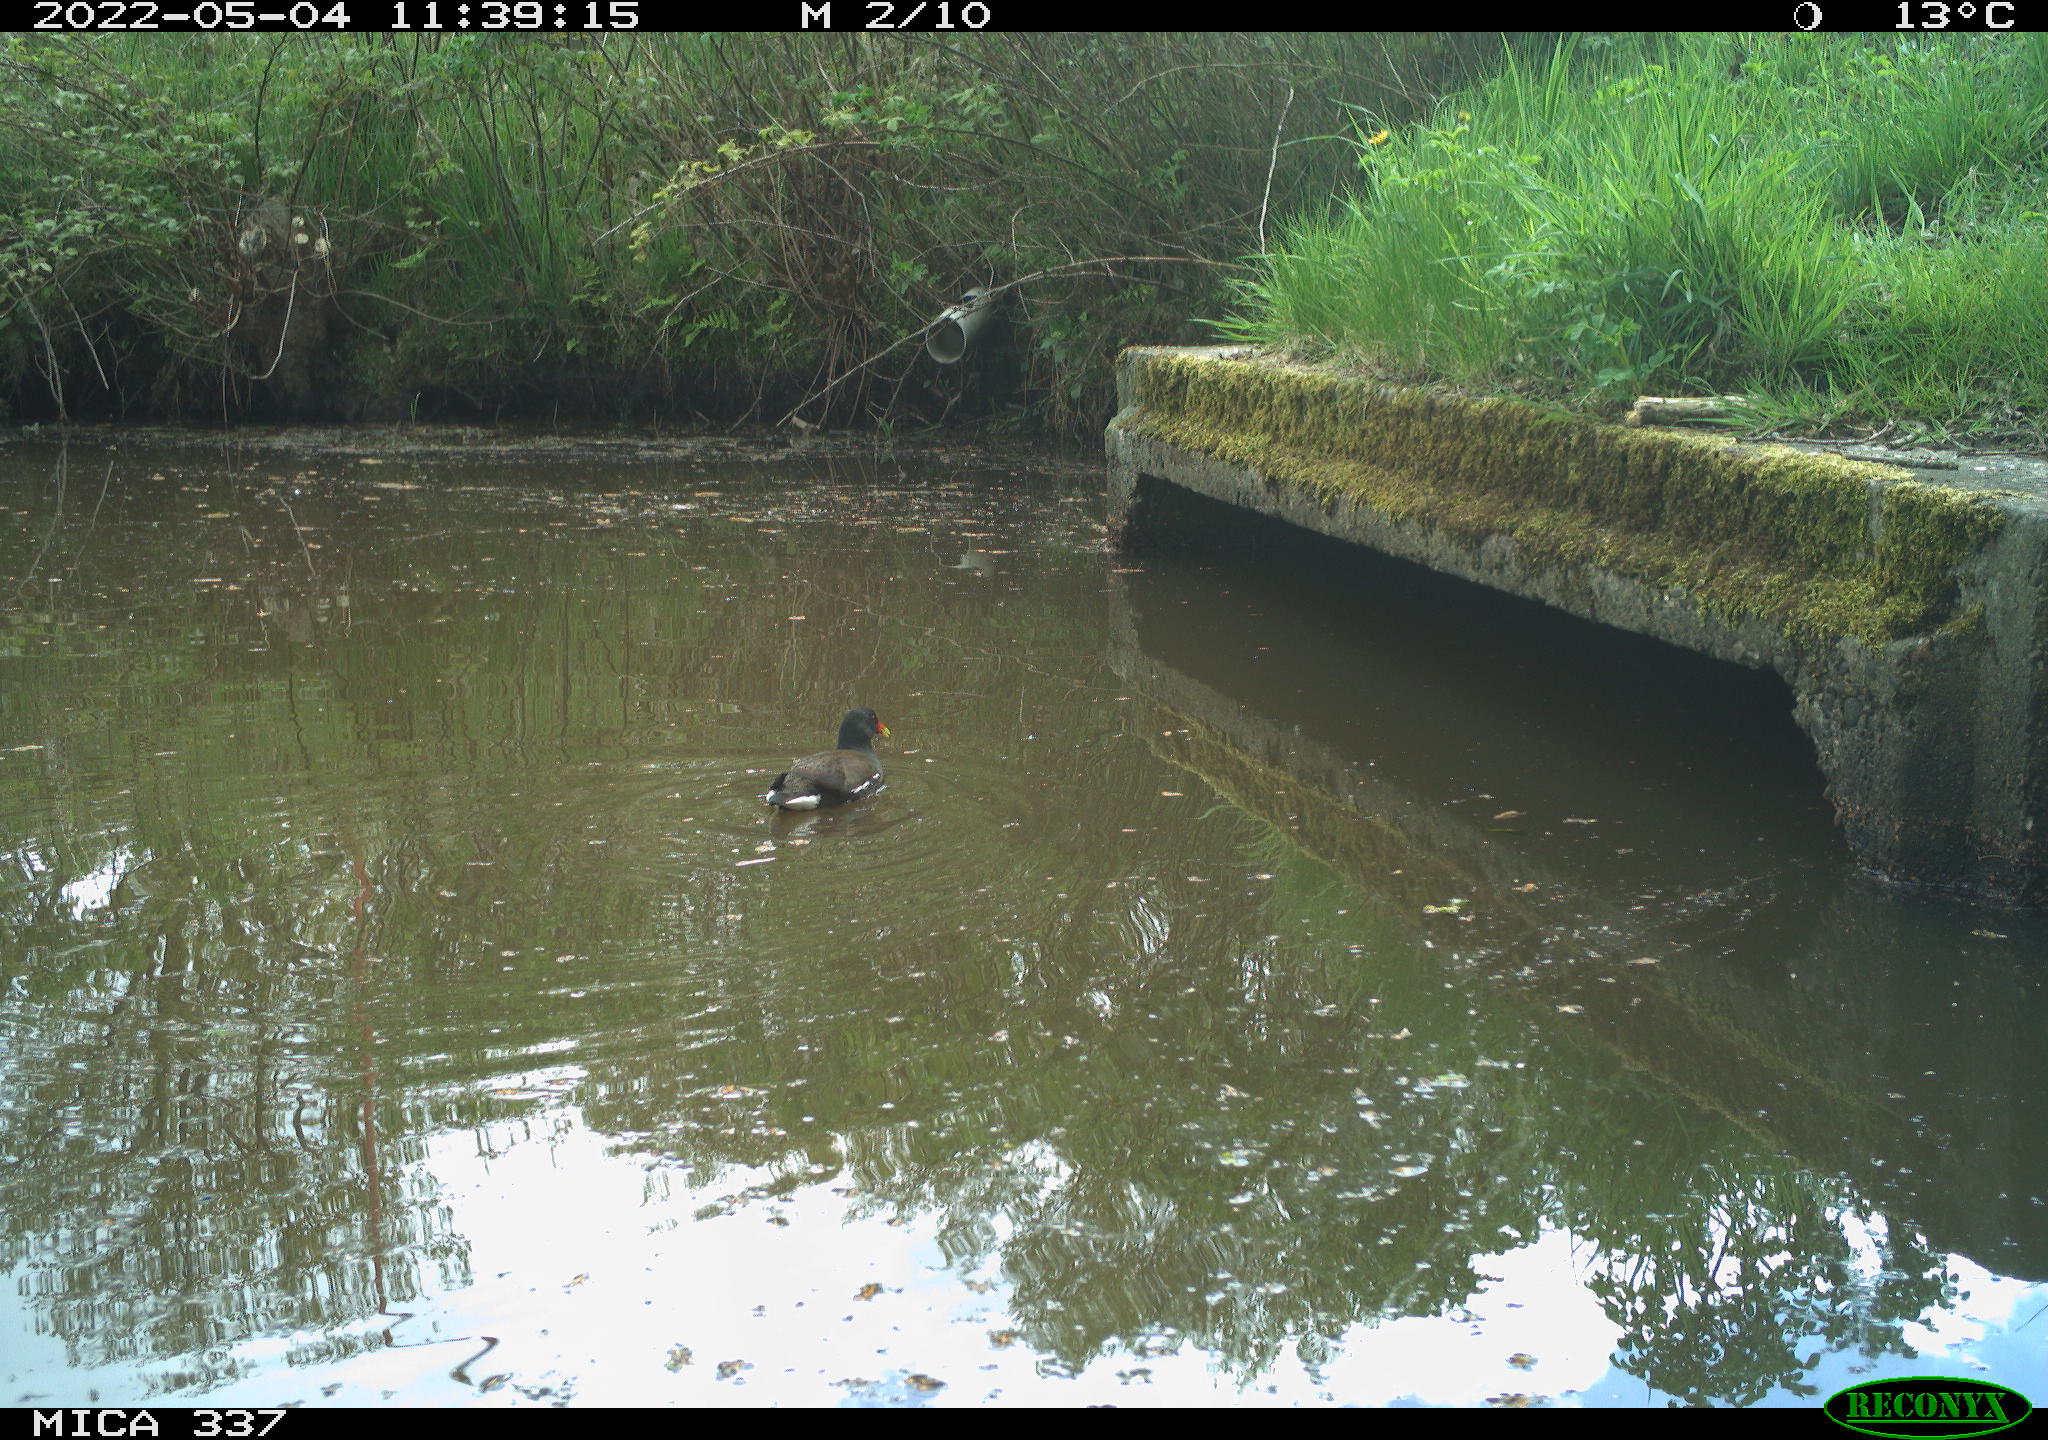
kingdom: Animalia
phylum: Chordata
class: Aves
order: Gruiformes
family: Rallidae
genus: Gallinula
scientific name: Gallinula chloropus
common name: Common moorhen
